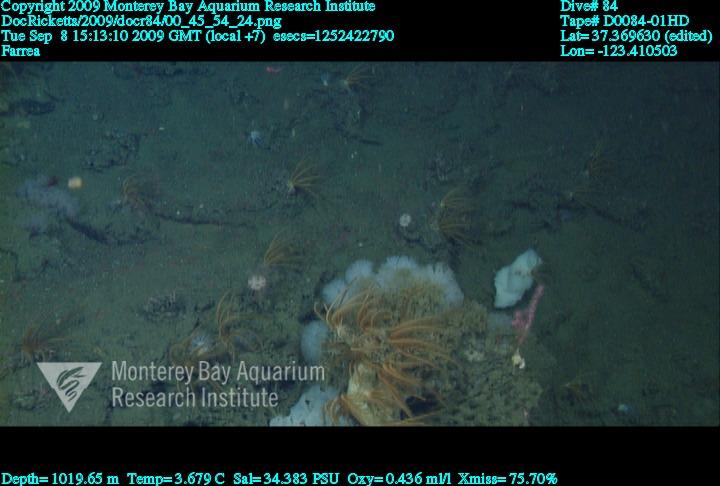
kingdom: Animalia
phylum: Porifera
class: Hexactinellida
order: Sceptrulophora
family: Farreidae
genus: Farrea
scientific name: Farrea
